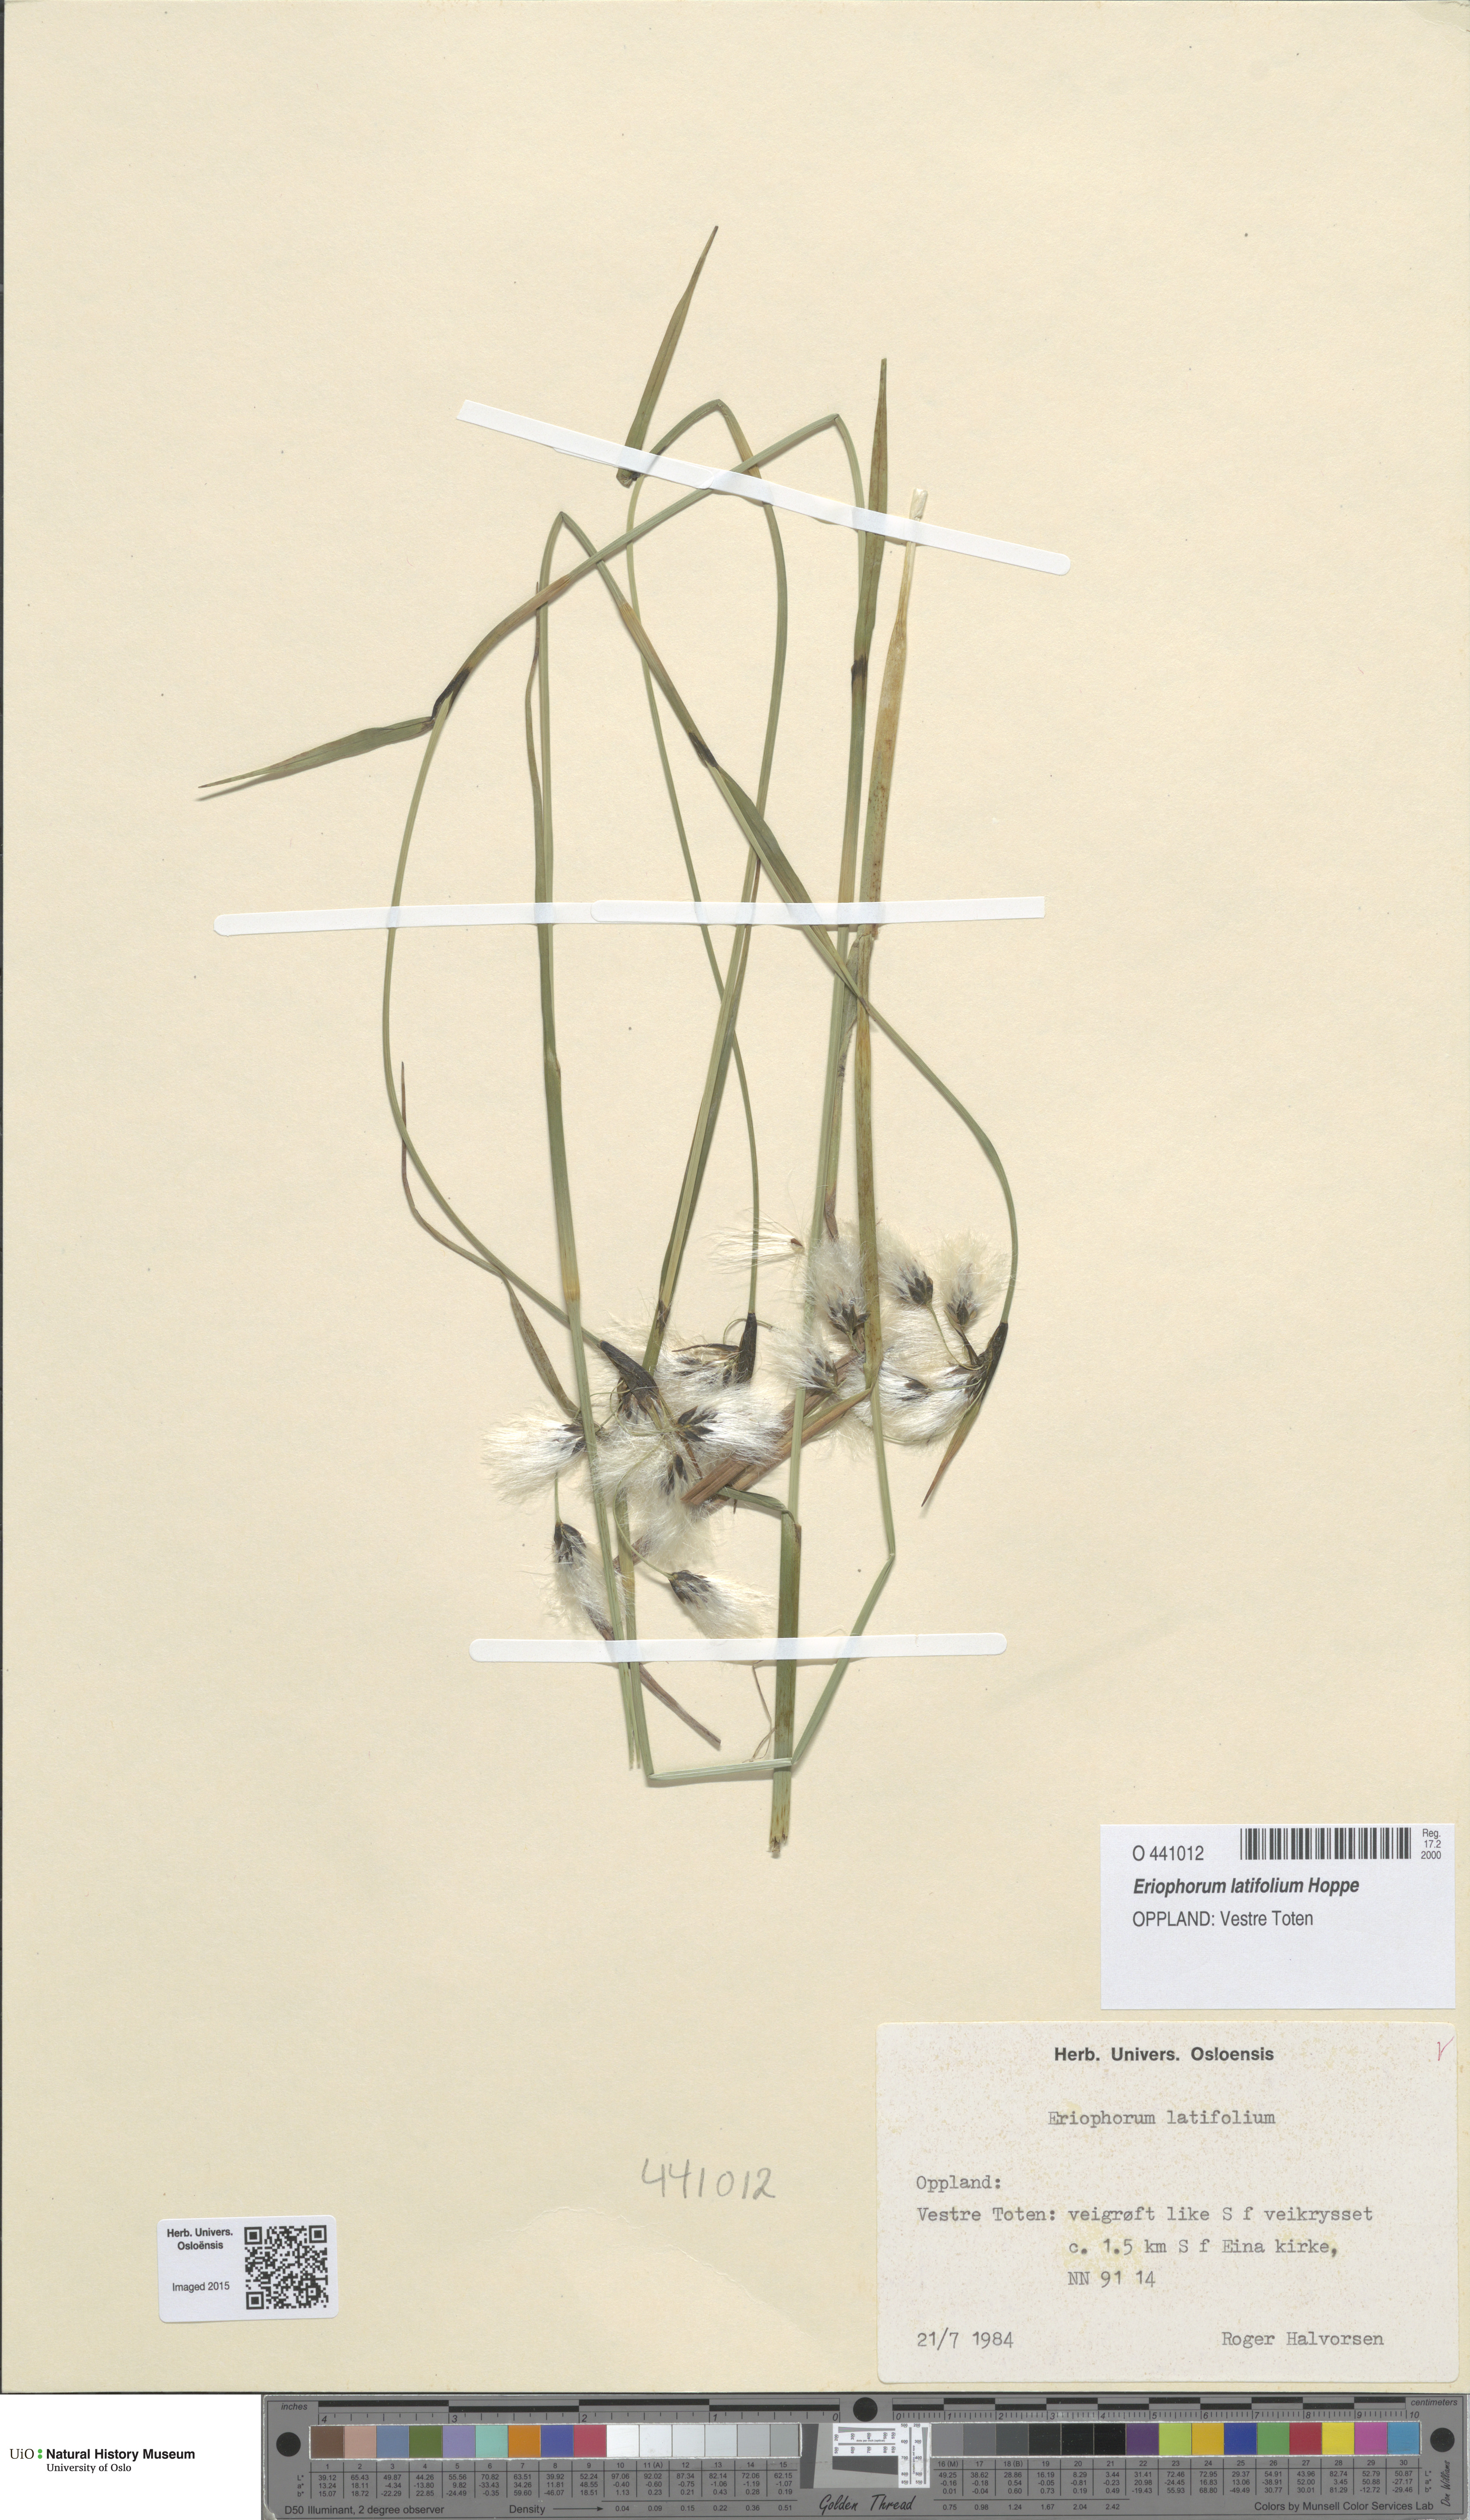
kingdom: Plantae
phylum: Tracheophyta
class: Liliopsida
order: Poales
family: Cyperaceae
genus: Eriophorum
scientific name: Eriophorum latifolium
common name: Broad-leaved cottongrass
